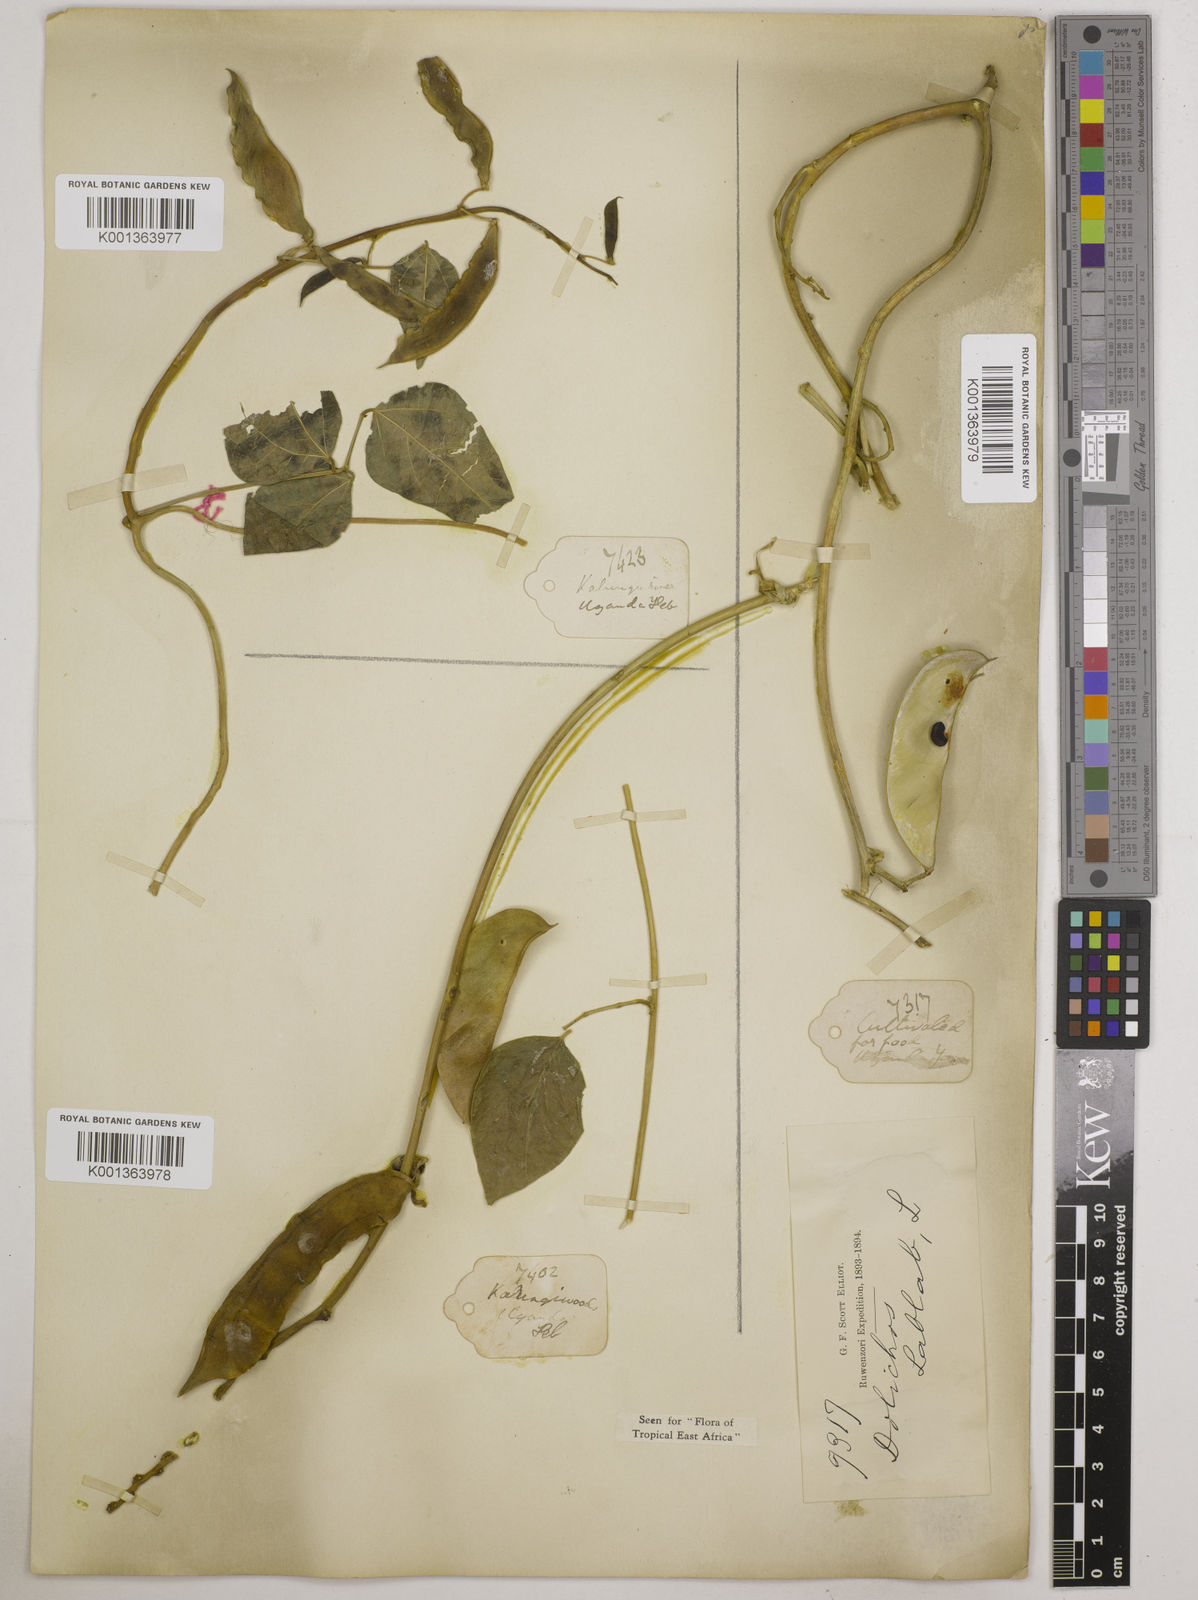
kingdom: Plantae
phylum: Tracheophyta
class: Magnoliopsida
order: Fabales
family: Fabaceae
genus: Phaseolus
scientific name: Phaseolus lunatus
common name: Sieva bean
